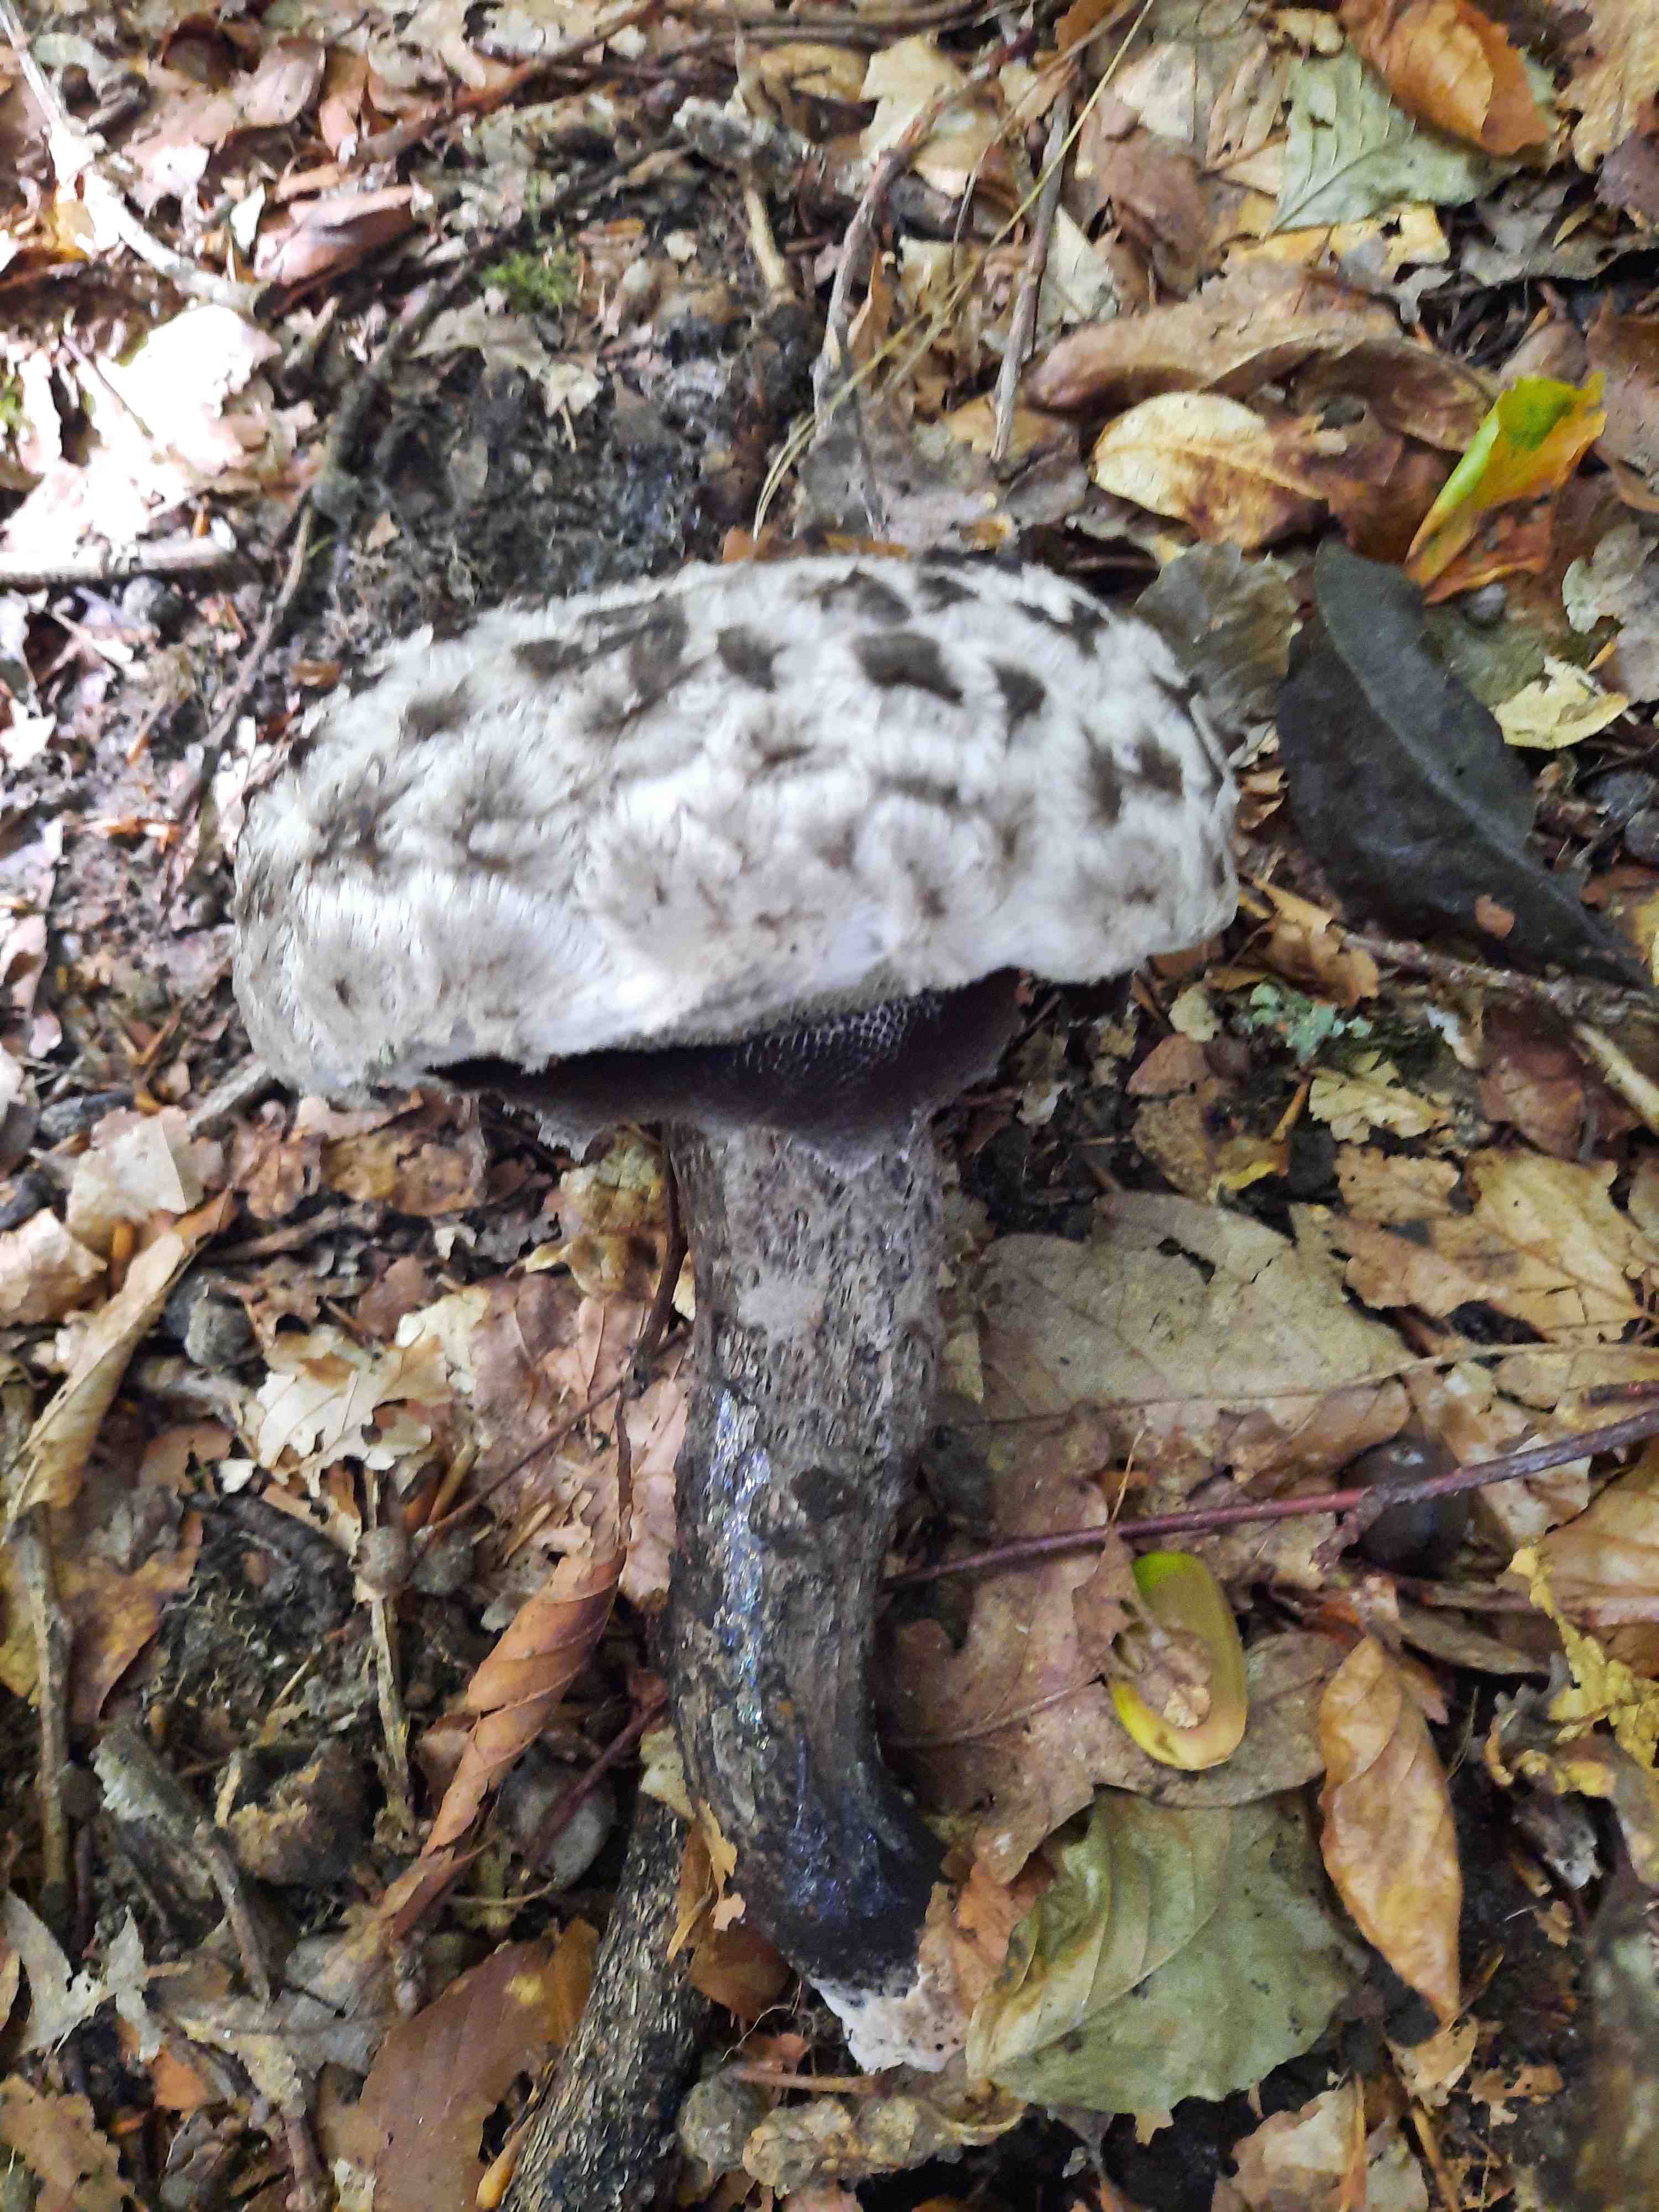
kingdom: Fungi
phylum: Basidiomycota
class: Agaricomycetes
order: Boletales
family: Boletaceae
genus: Strobilomyces
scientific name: Strobilomyces strobilaceus
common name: koglerørhat
